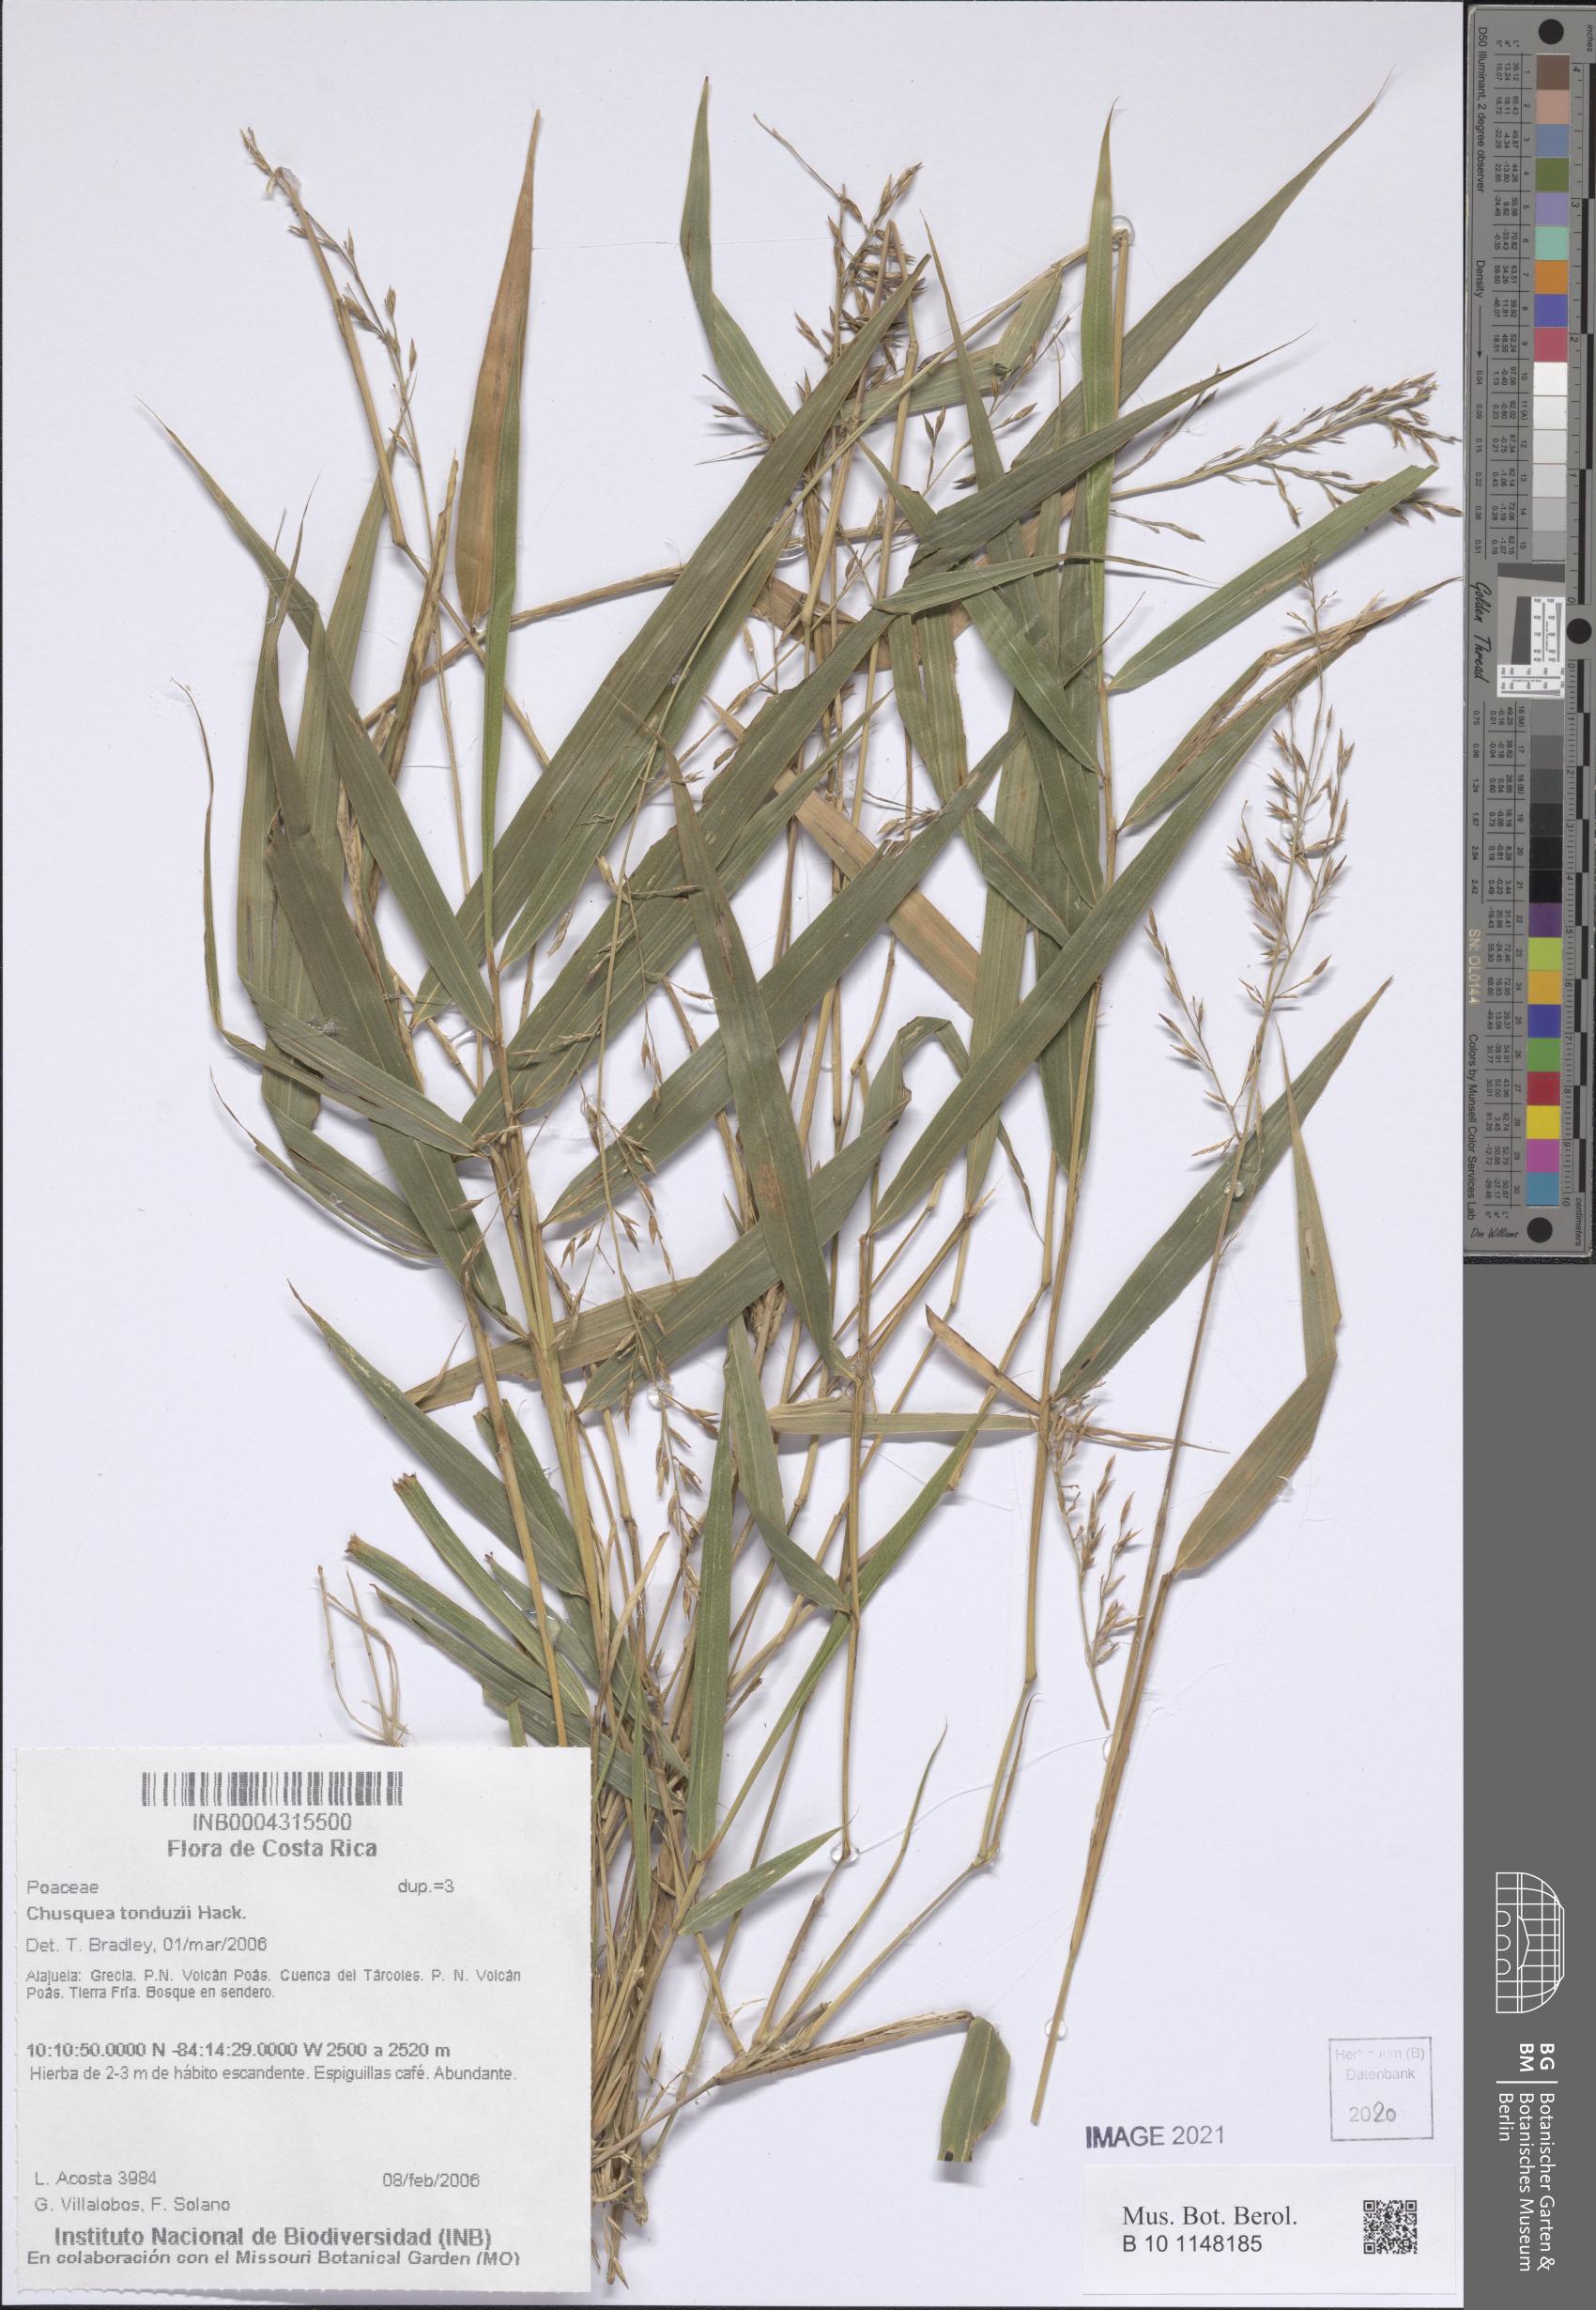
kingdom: Plantae
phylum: Tracheophyta
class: Liliopsida
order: Poales
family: Poaceae
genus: Chusquea
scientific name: Chusquea tonduzii
